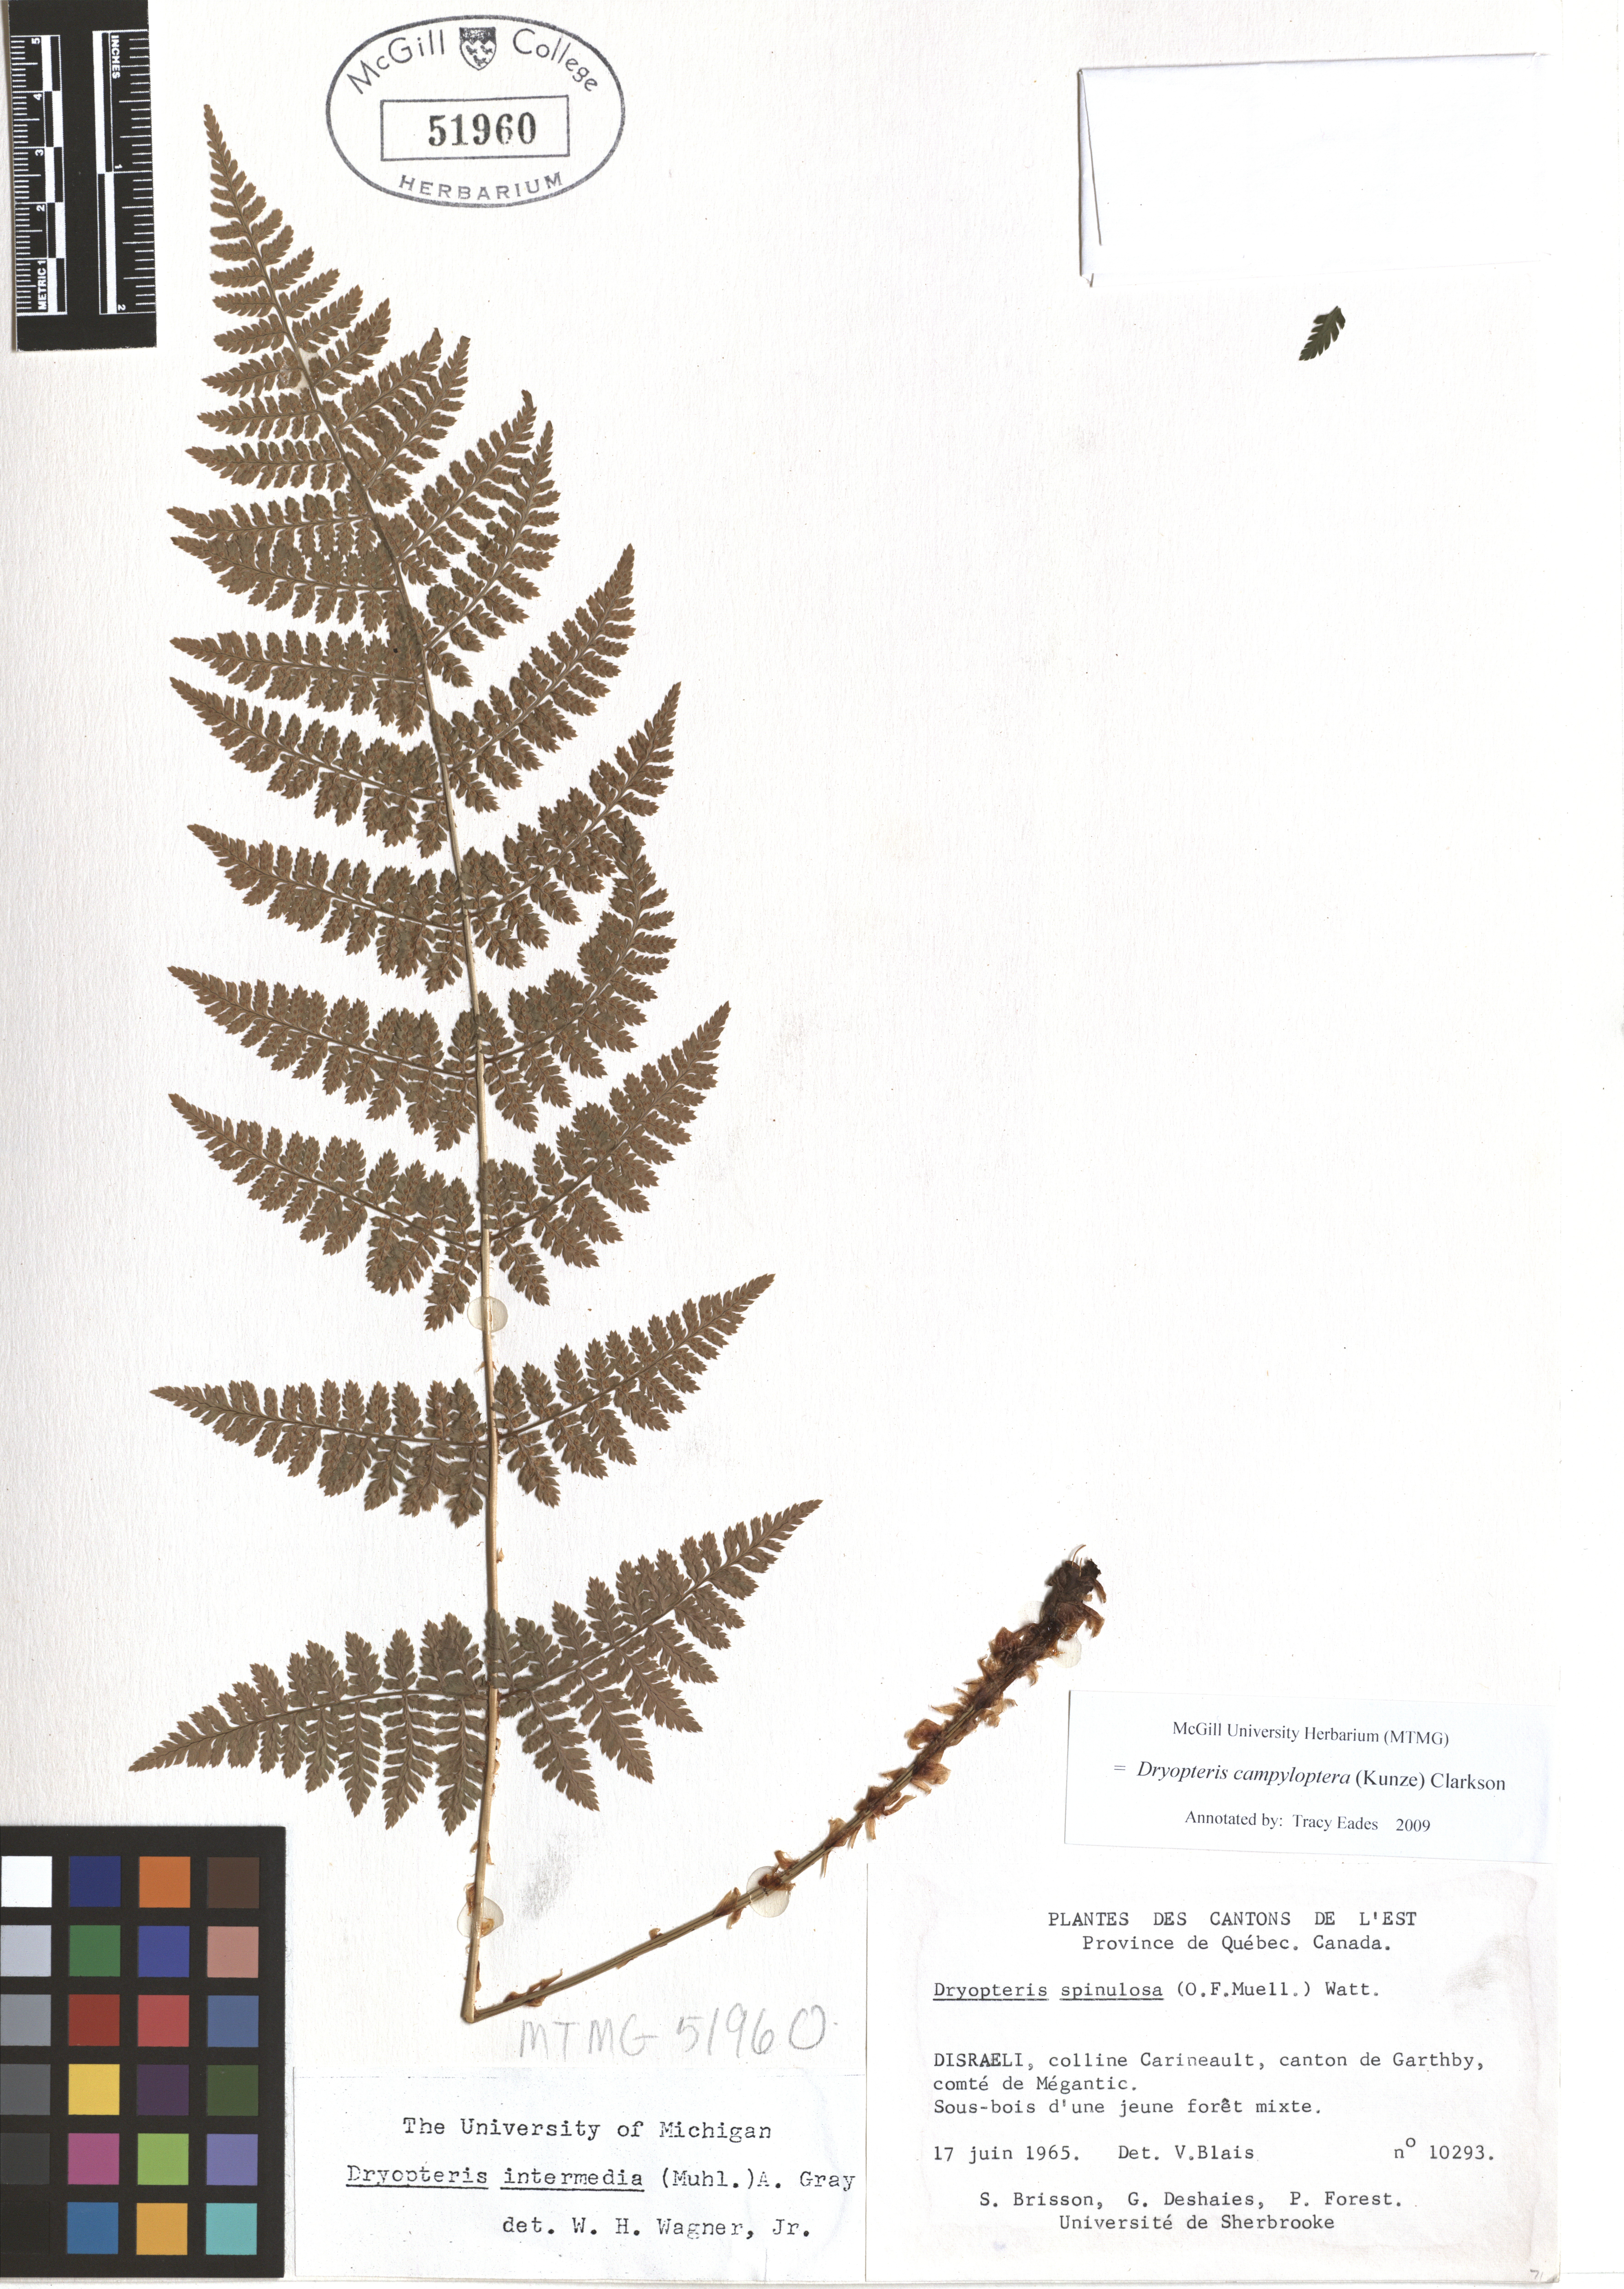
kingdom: Plantae
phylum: Tracheophyta
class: Polypodiopsida
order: Polypodiales
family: Dryopteridaceae
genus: Dryopteris
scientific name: Dryopteris campyloptera
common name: Mountain wood fern
